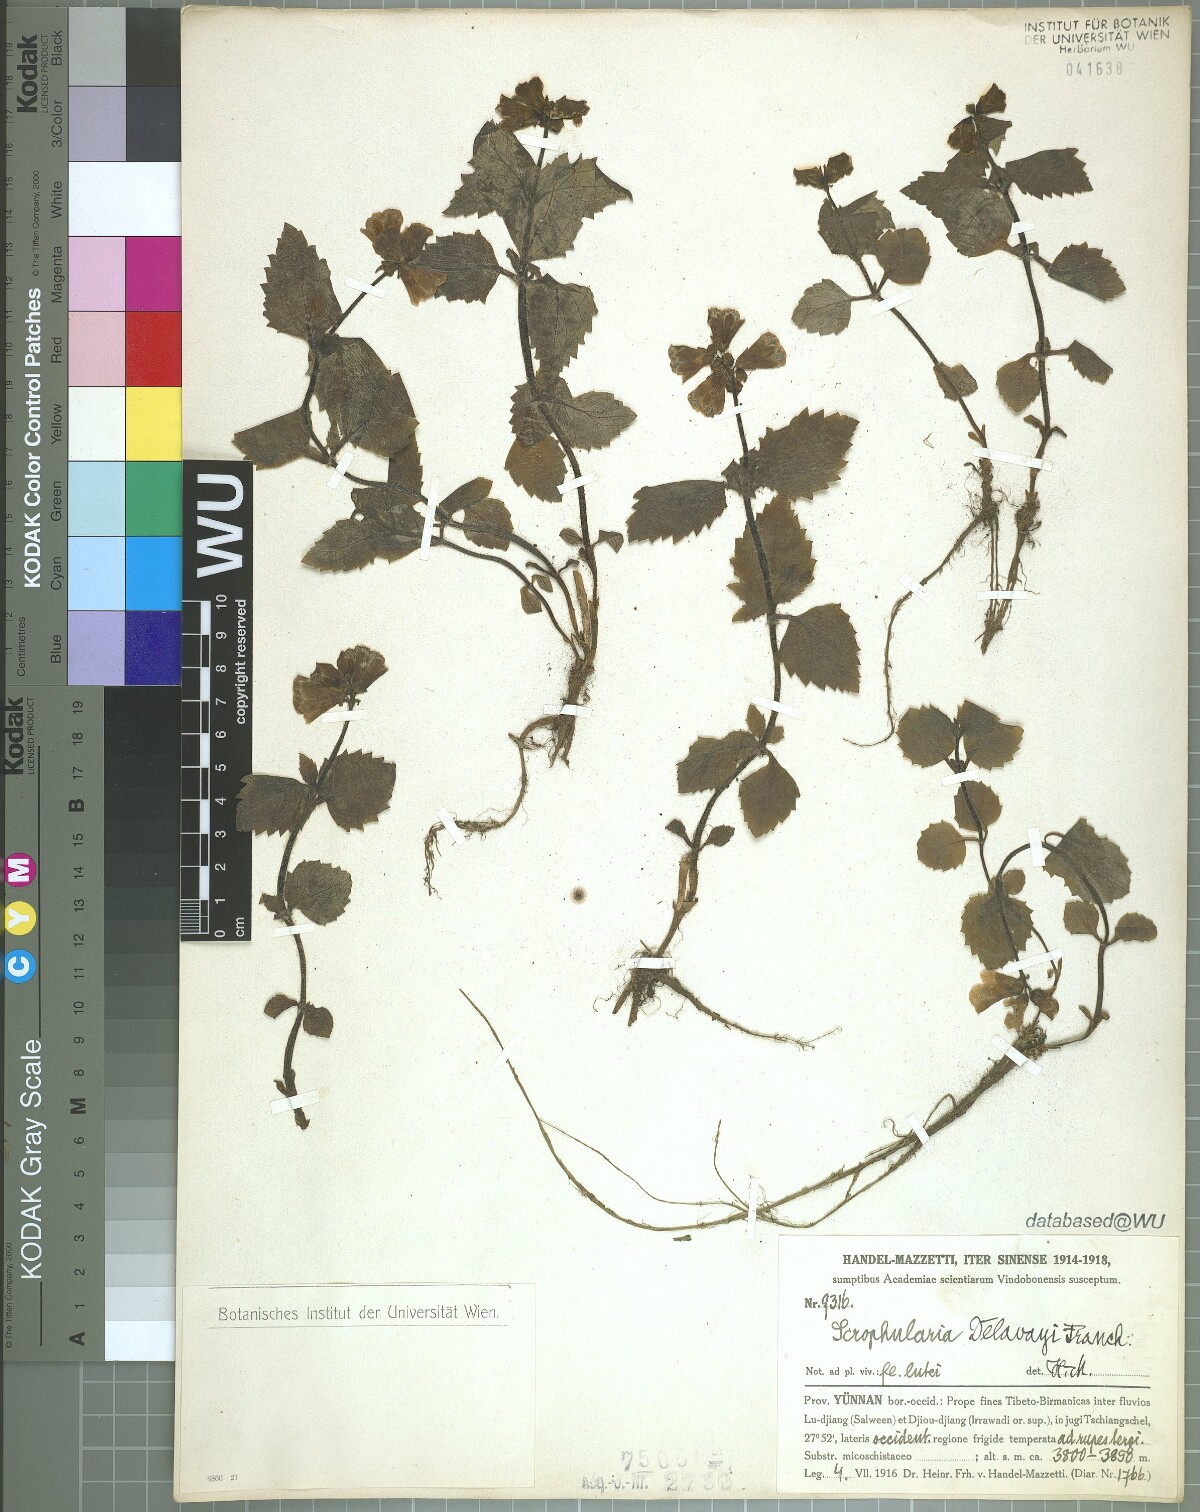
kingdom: Plantae
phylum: Tracheophyta
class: Magnoliopsida
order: Lamiales
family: Scrophulariaceae
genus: Scrophularia
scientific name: Scrophularia delavayi
